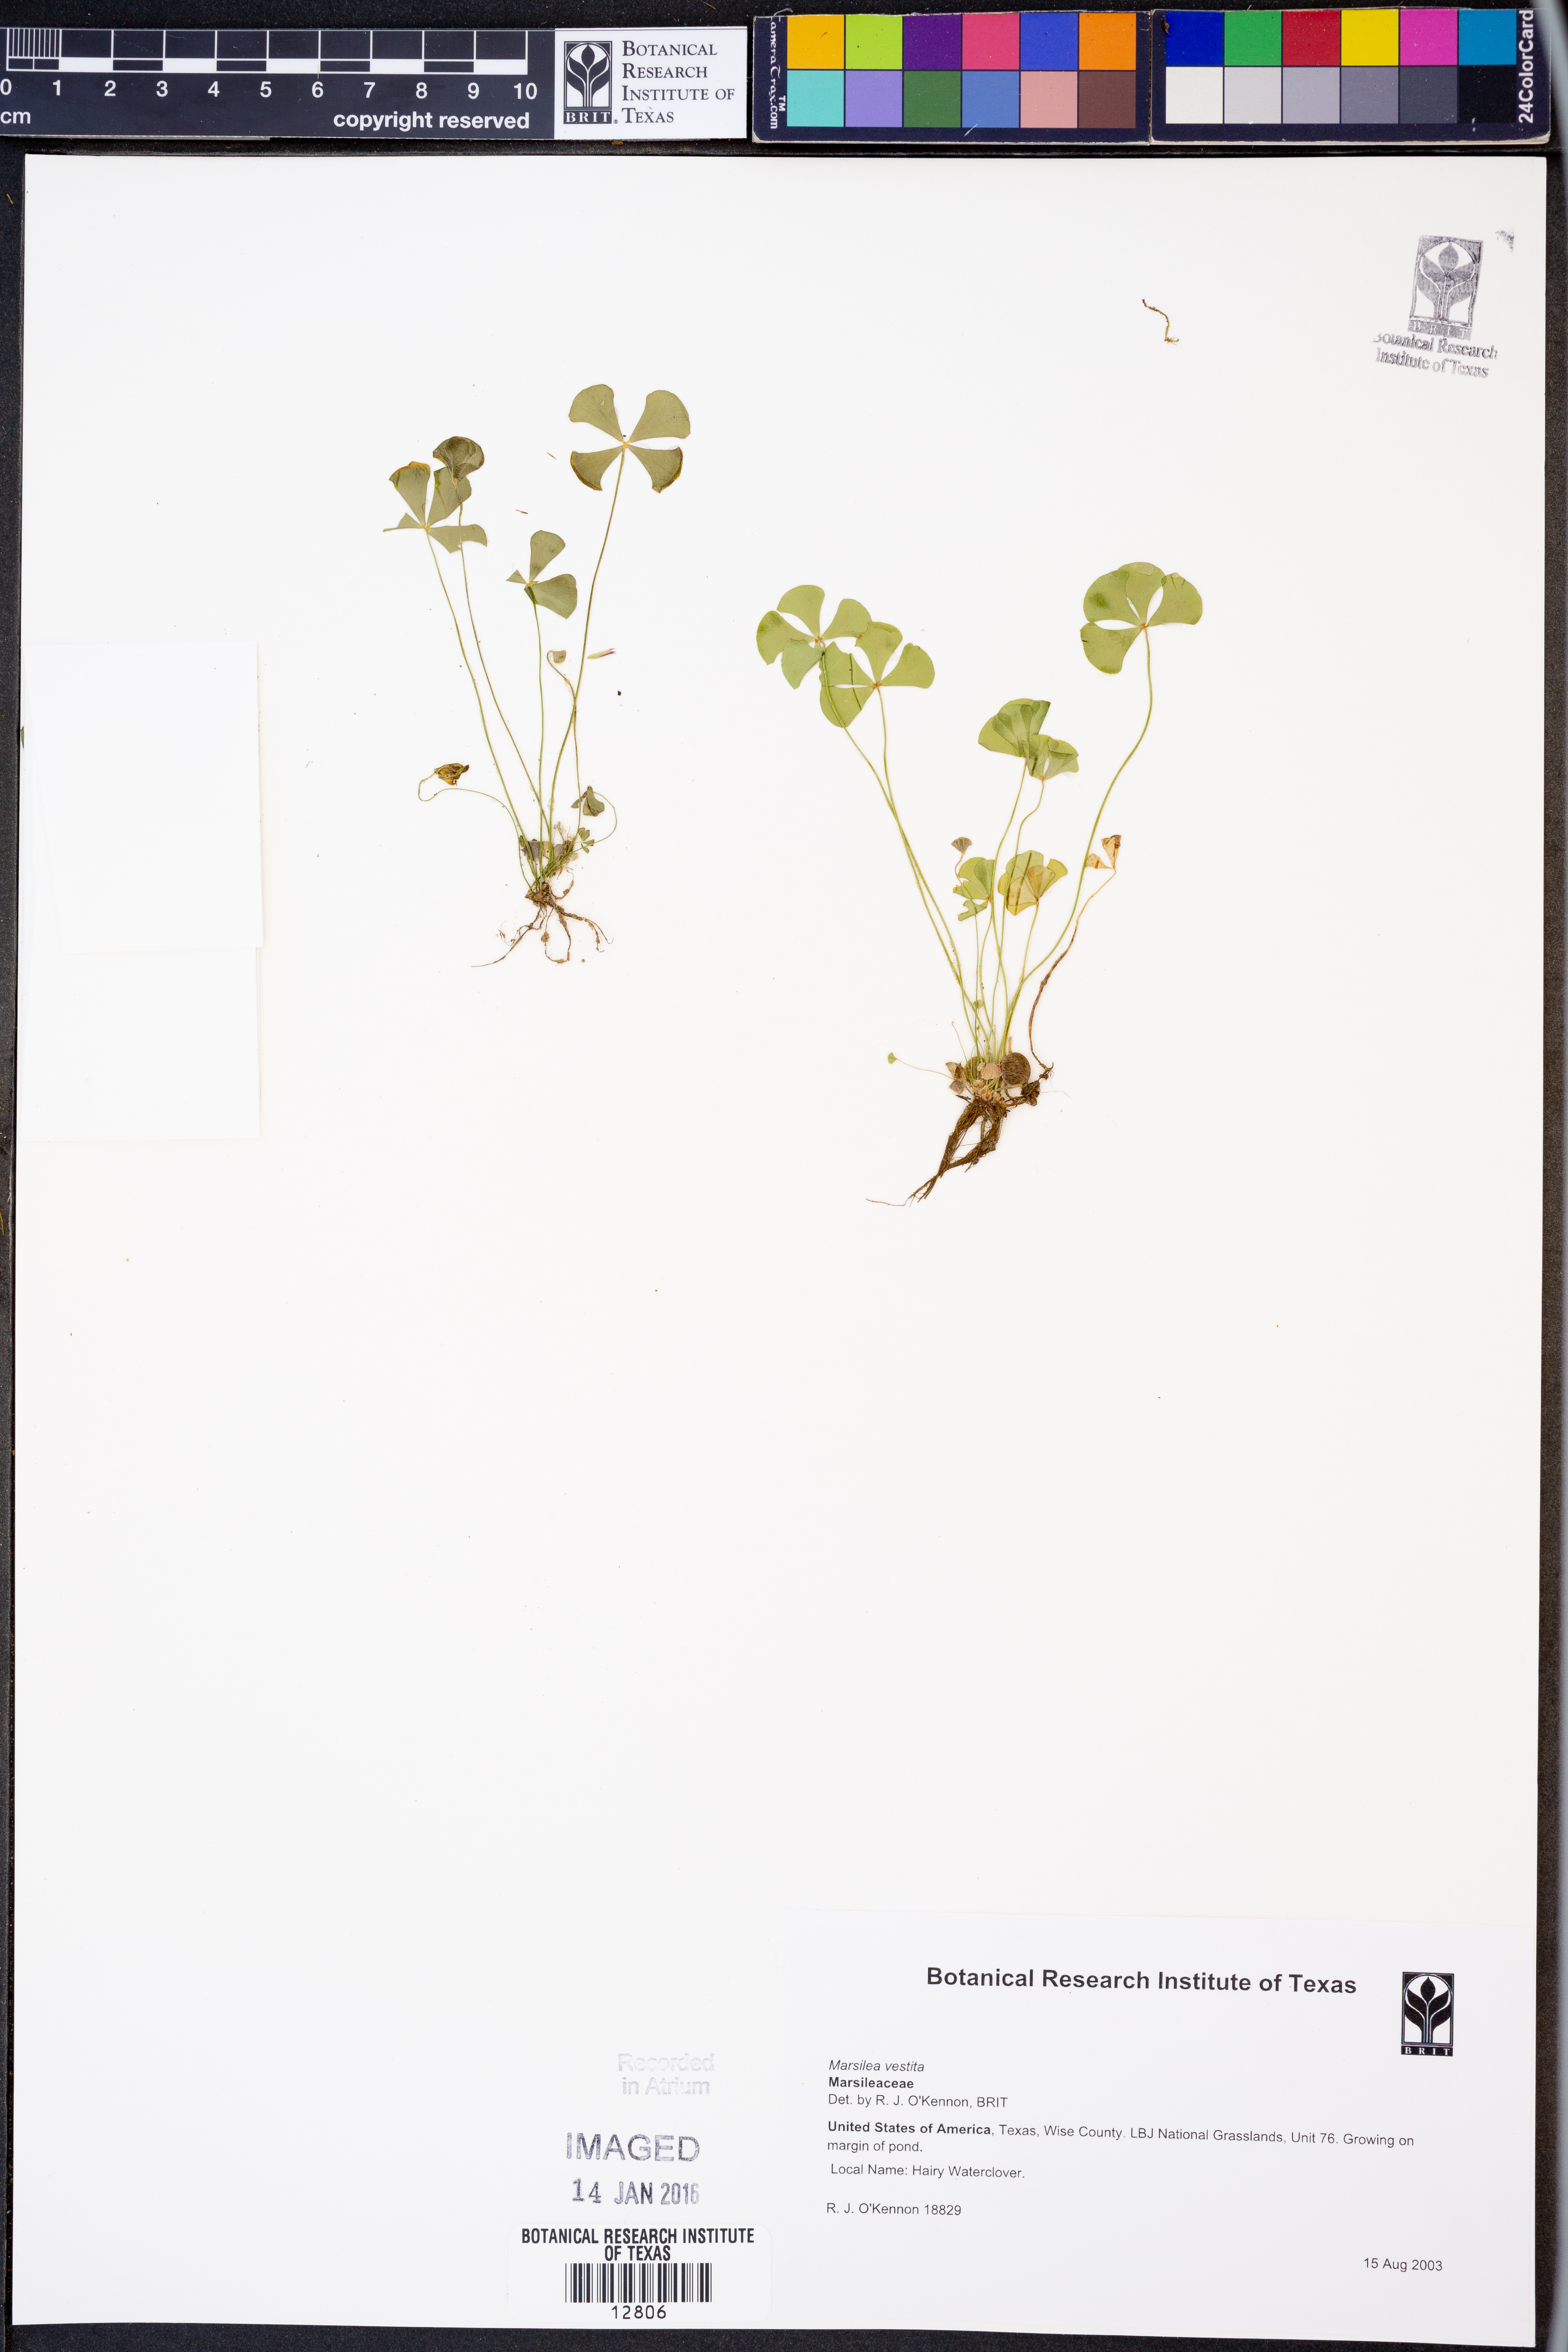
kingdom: Plantae
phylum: Tracheophyta
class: Polypodiopsida
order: Salviniales
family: Marsileaceae
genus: Marsilea
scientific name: Marsilea vestita
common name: Hooked-pepperwort
